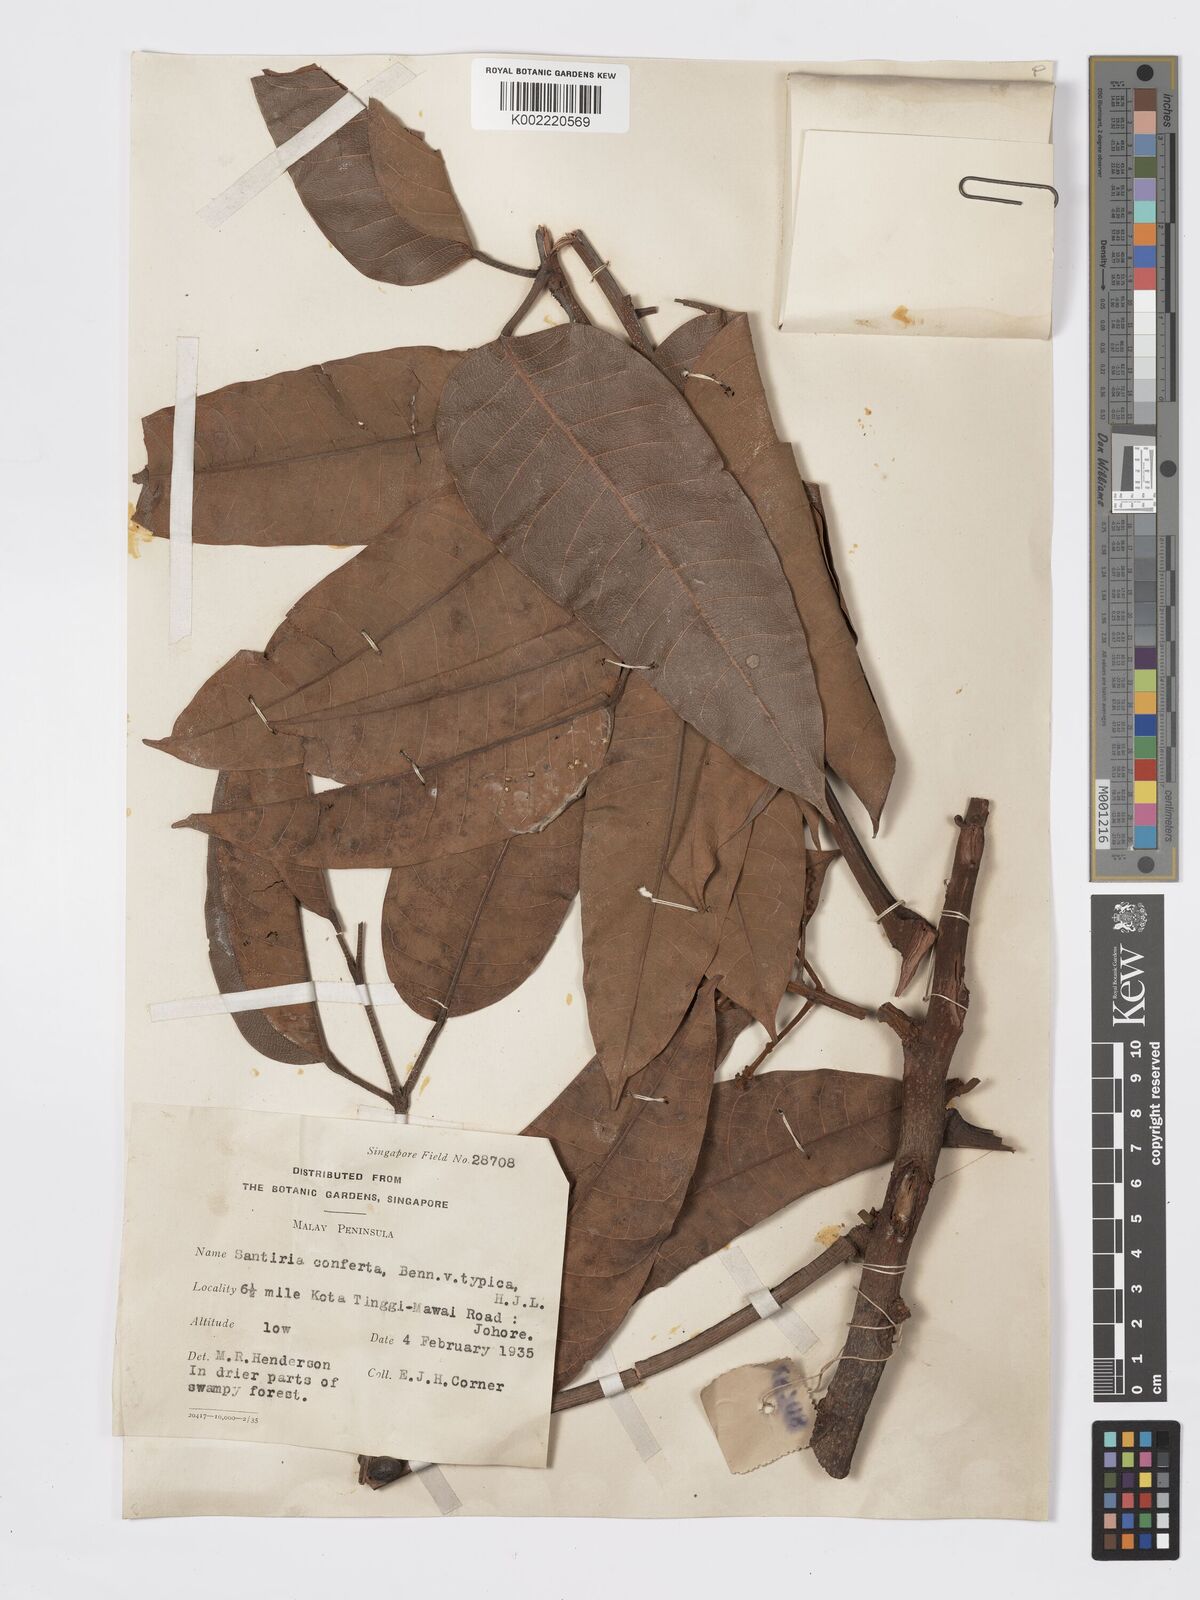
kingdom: Plantae
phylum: Tracheophyta
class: Magnoliopsida
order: Sapindales
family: Burseraceae
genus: Santiria
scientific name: Santiria conferta
